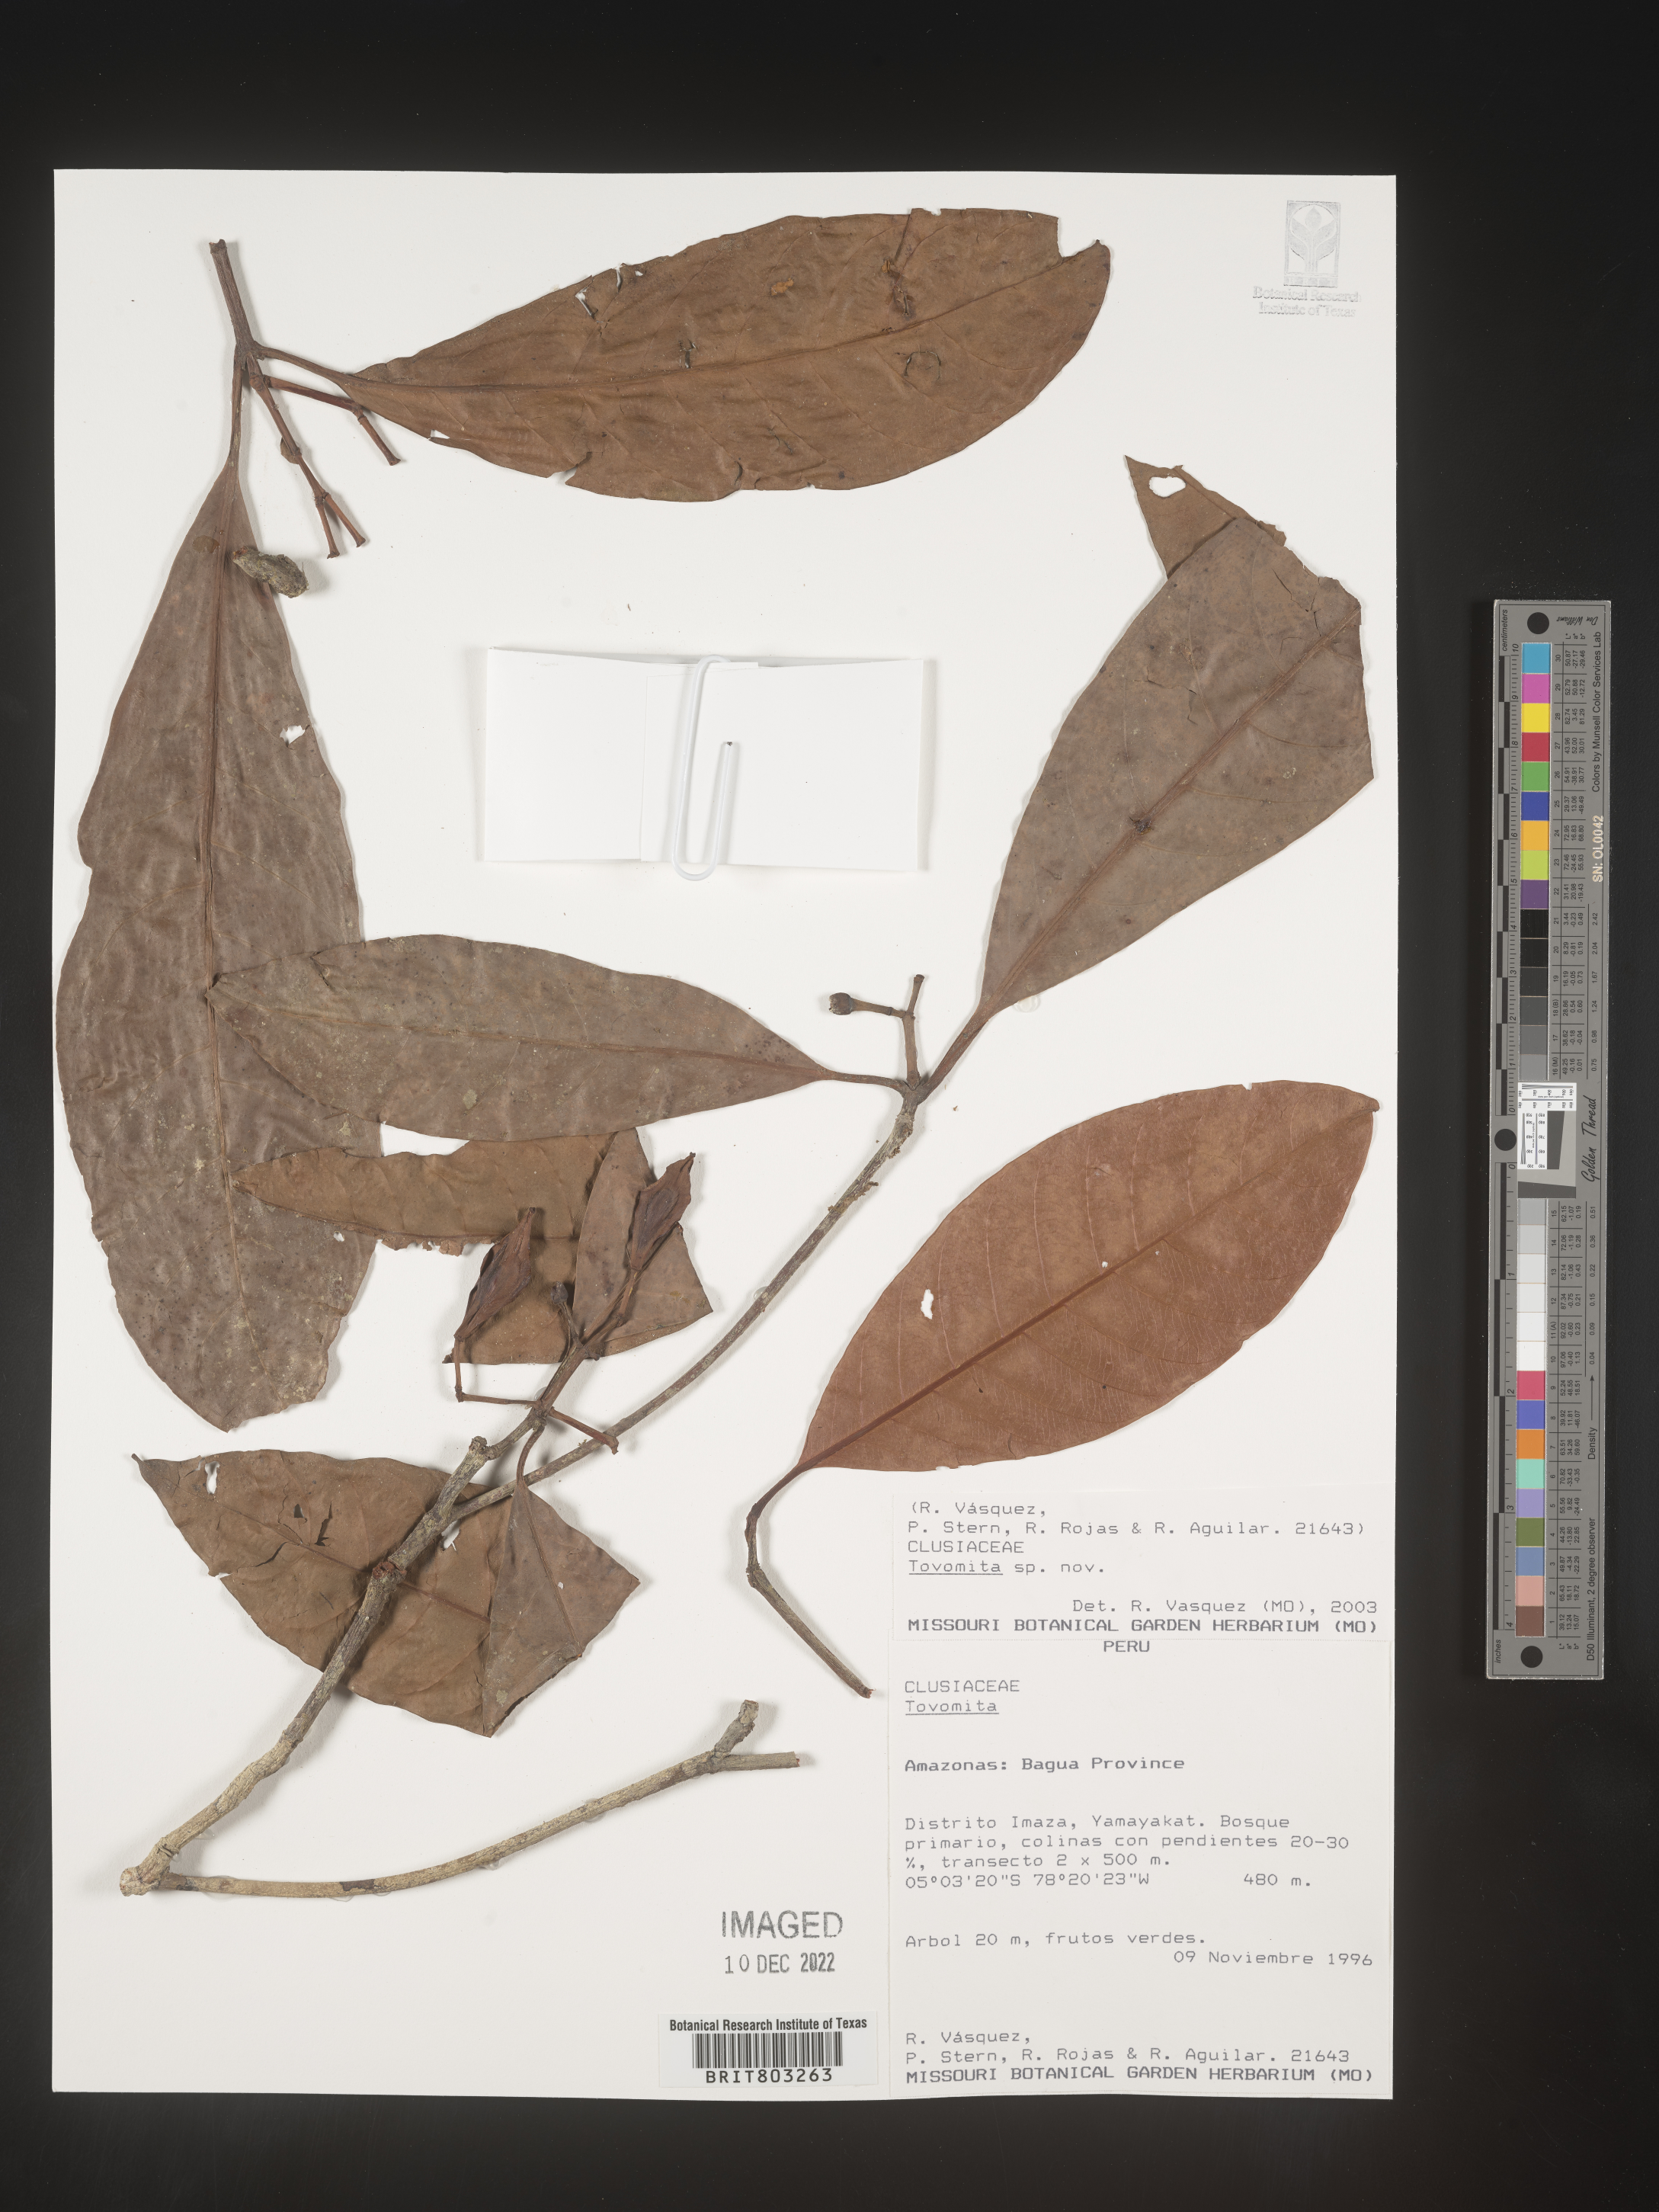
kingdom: Plantae
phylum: Tracheophyta
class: Magnoliopsida
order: Malpighiales
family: Clusiaceae
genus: Tovomita
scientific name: Tovomita
